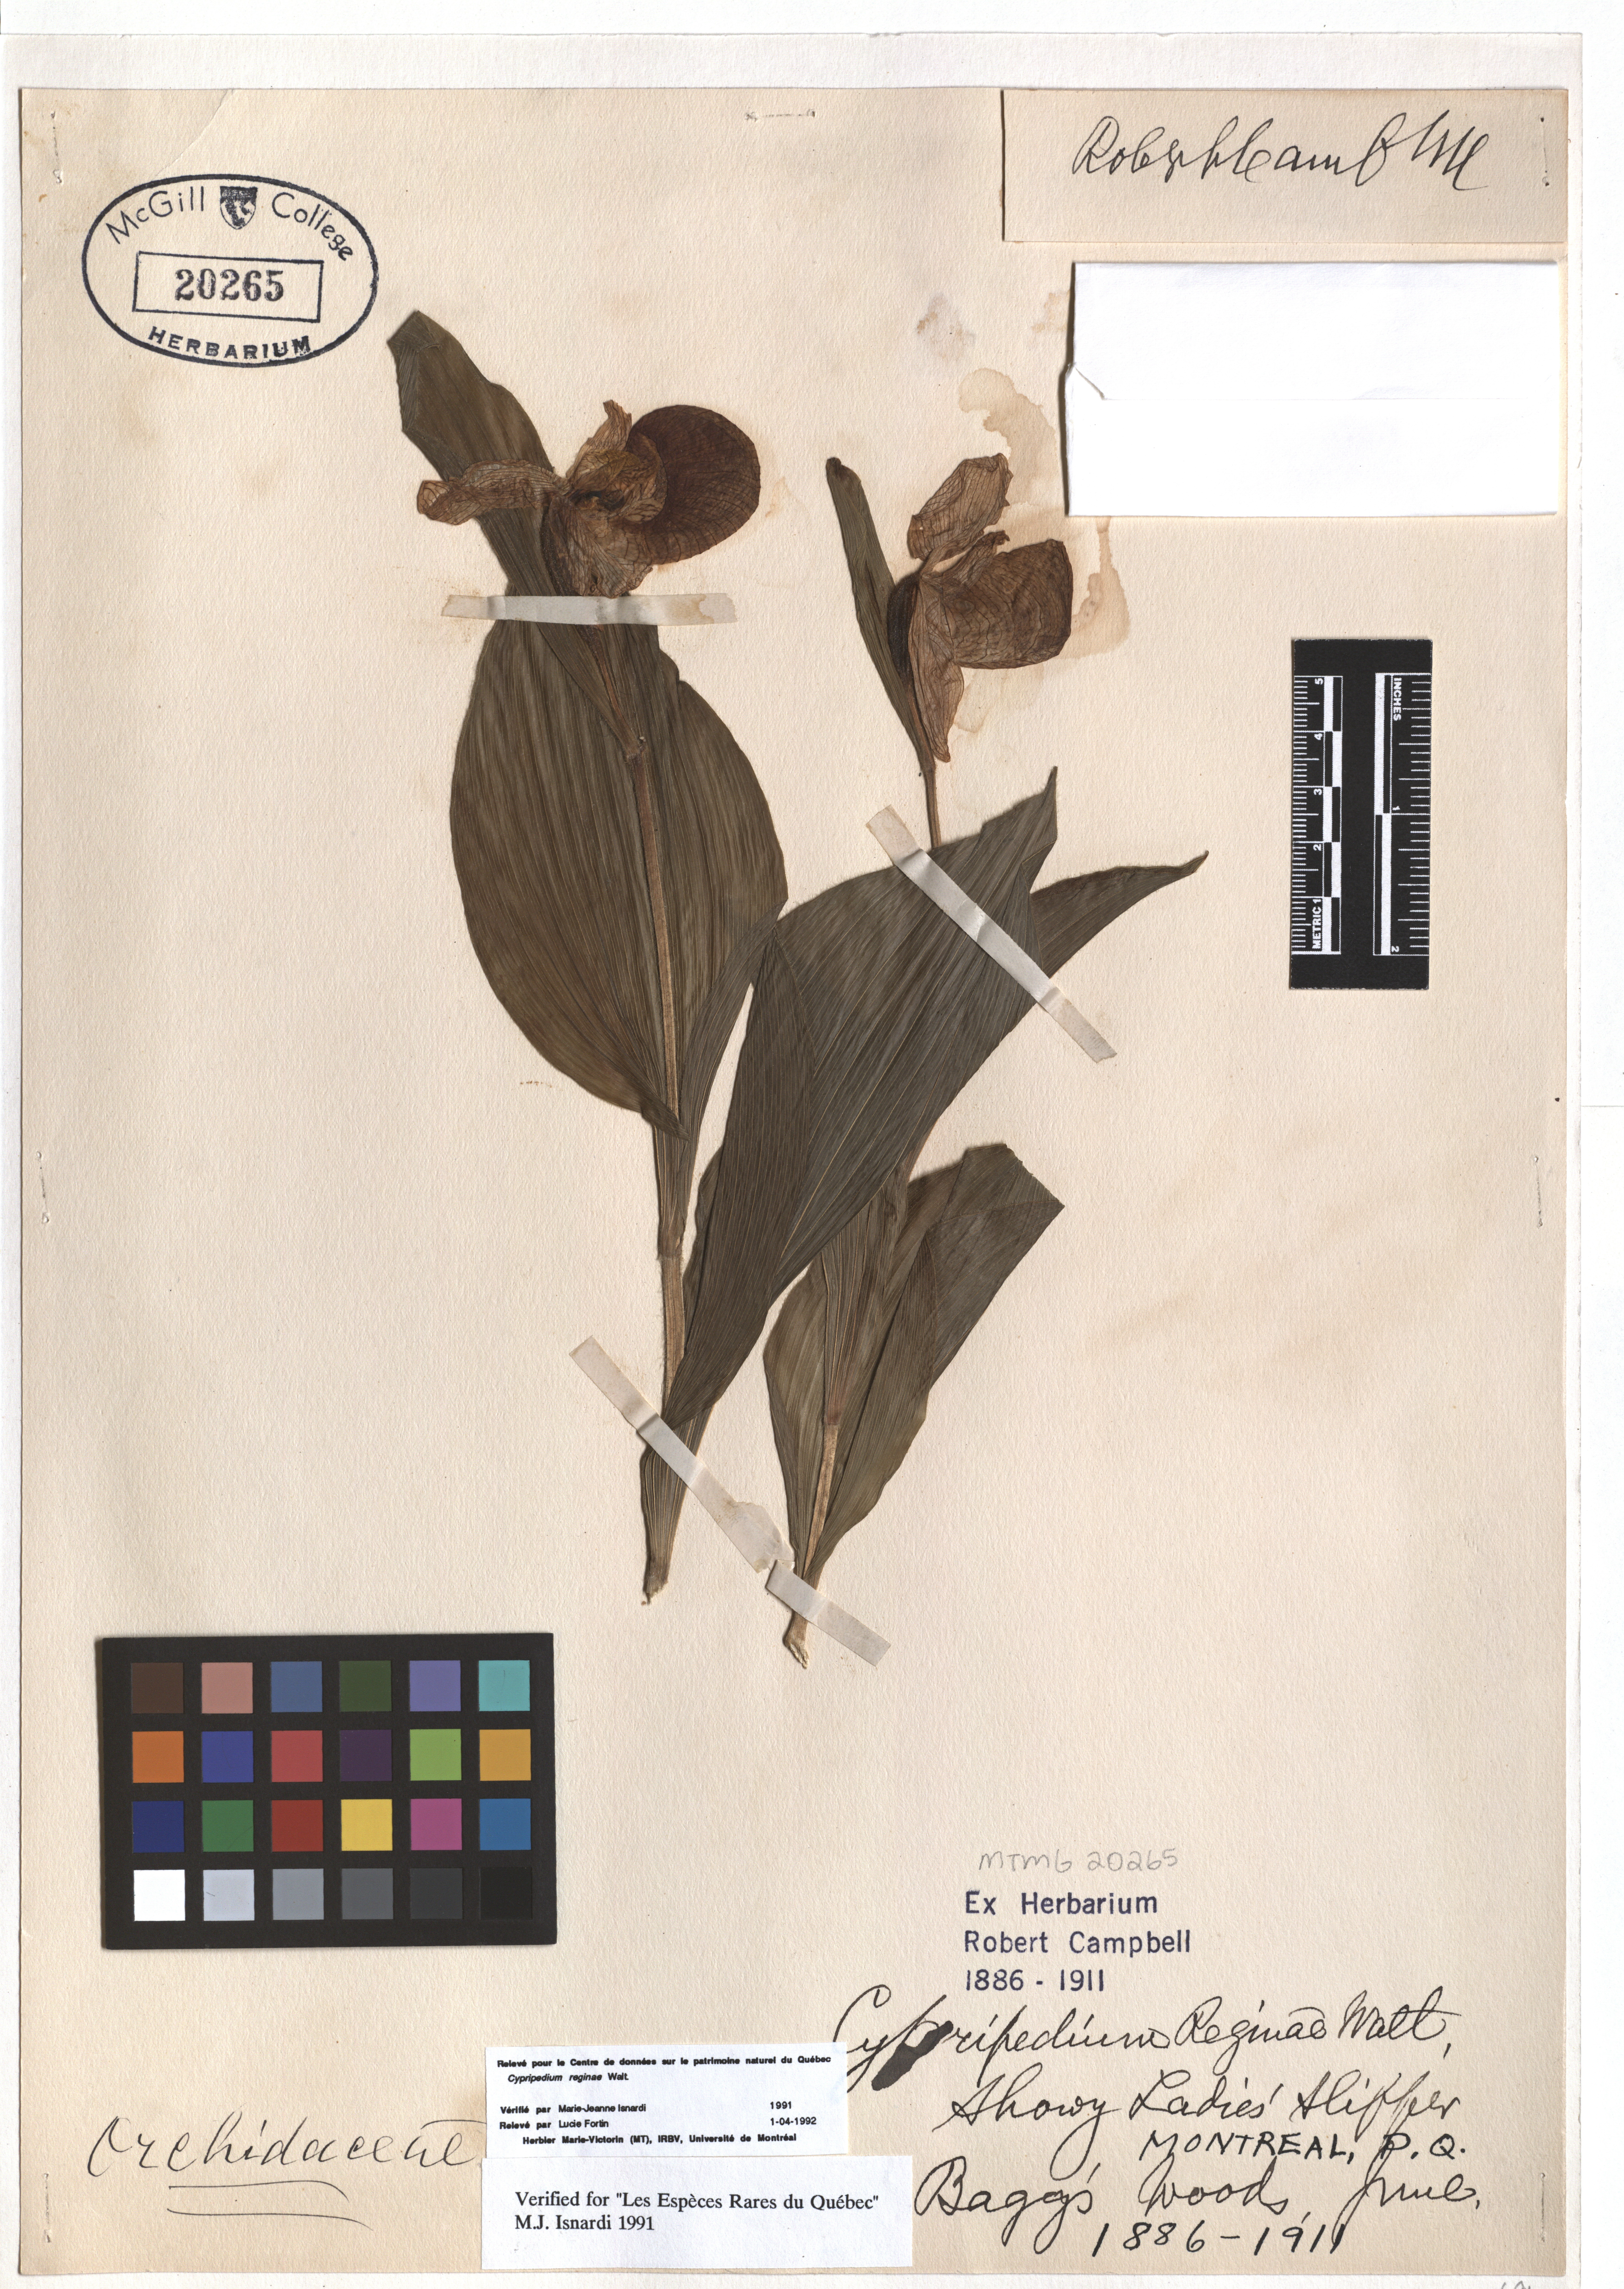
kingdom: Plantae
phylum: Tracheophyta
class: Liliopsida
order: Asparagales
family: Orchidaceae
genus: Cypripedium
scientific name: Cypripedium reginae
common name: Queen lady's-slipper
